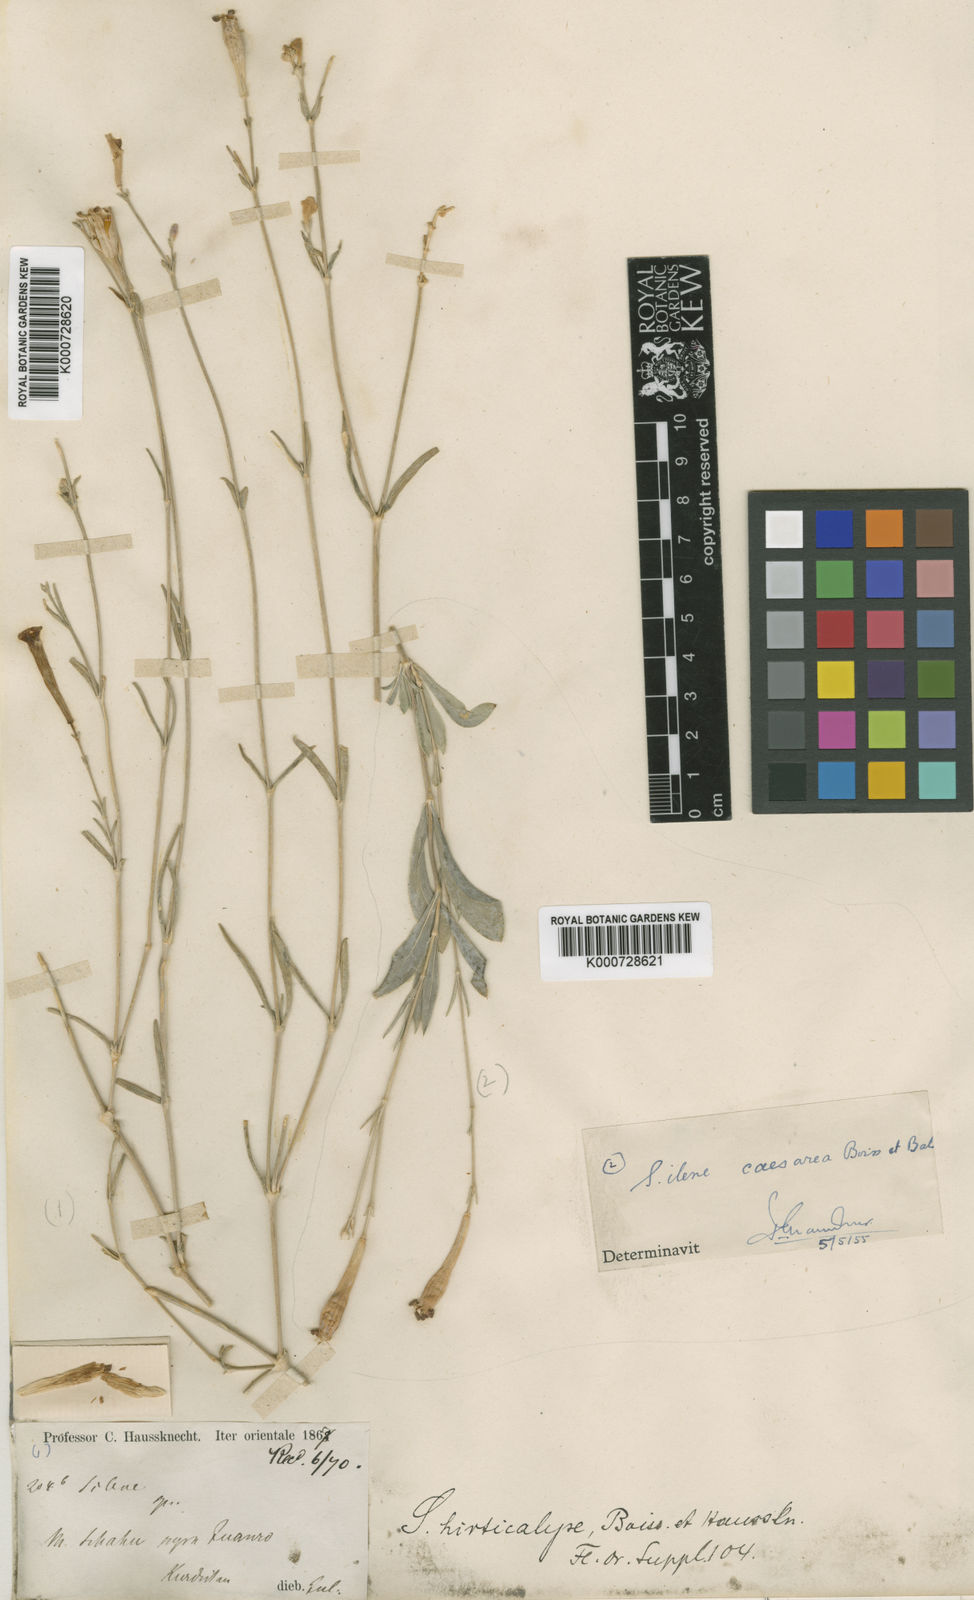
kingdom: Plantae
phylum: Tracheophyta
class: Magnoliopsida
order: Caryophyllales
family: Caryophyllaceae
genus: Silene
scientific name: Silene hirticalyx
